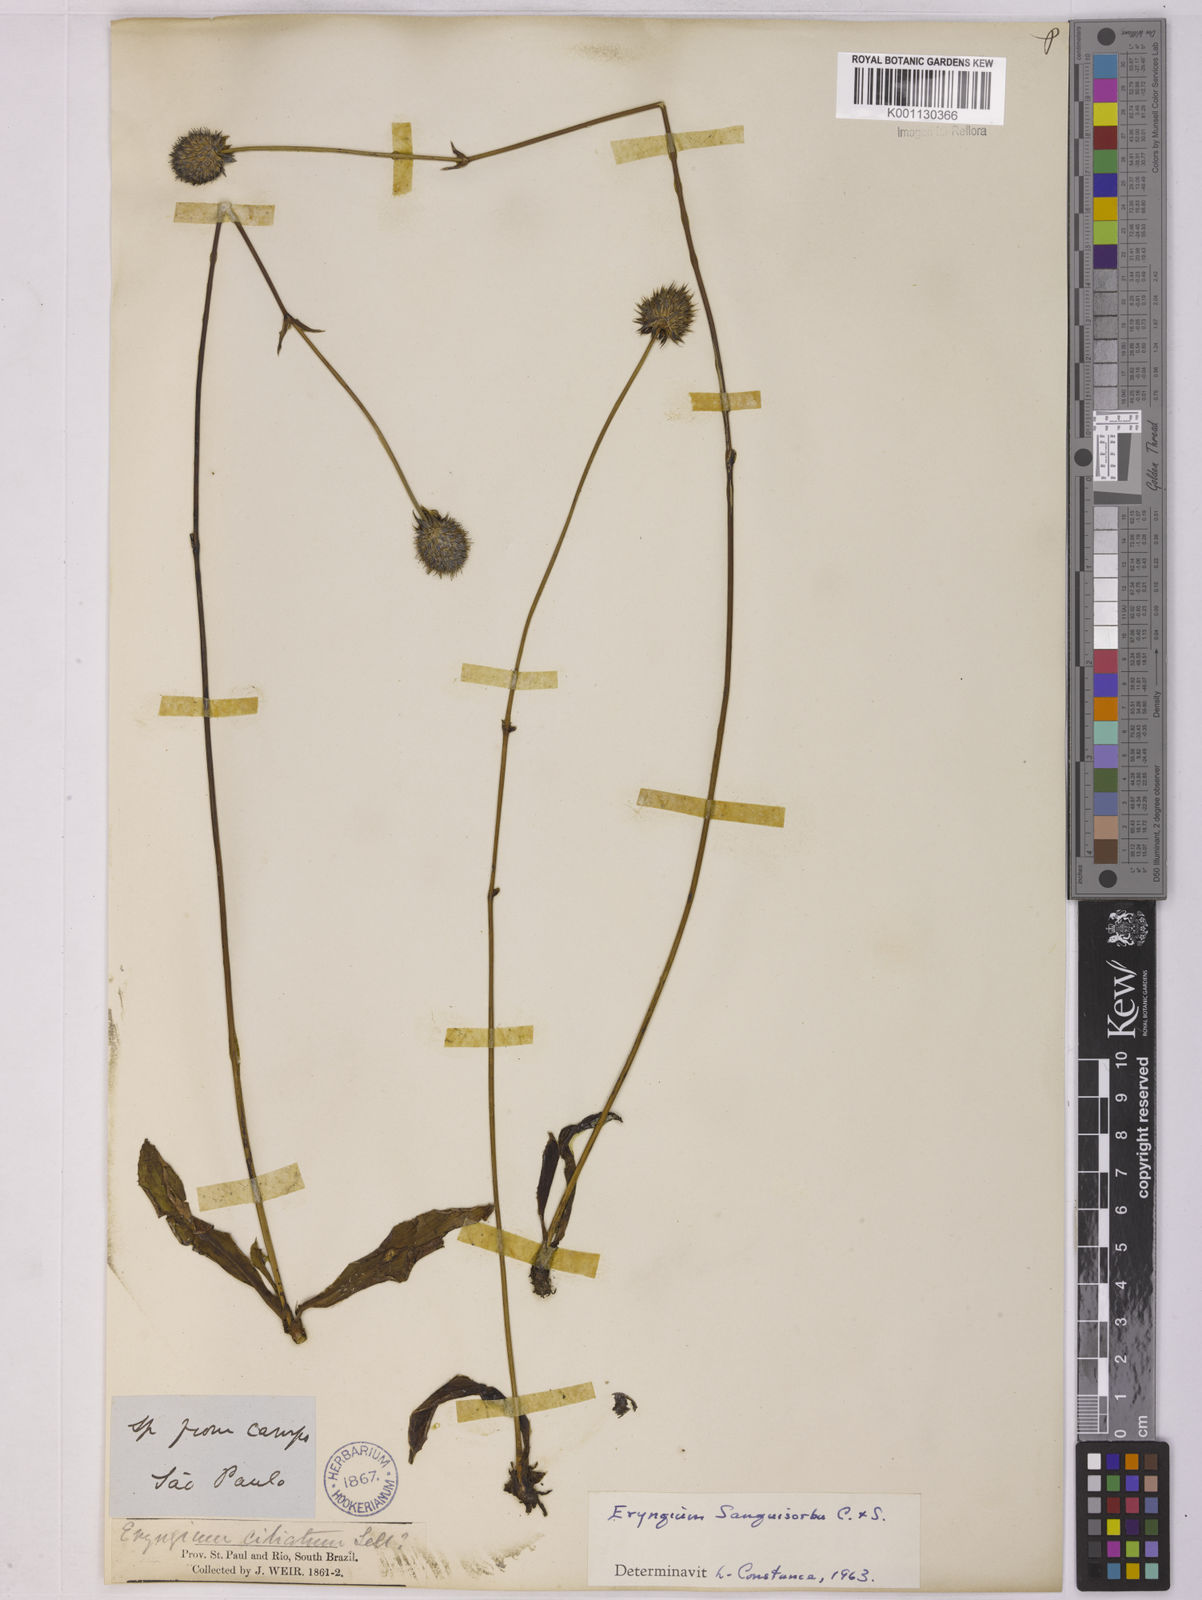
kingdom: Plantae
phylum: Tracheophyta
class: Magnoliopsida
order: Apiales
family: Apiaceae
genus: Eryngium
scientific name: Eryngium sanguisorba
